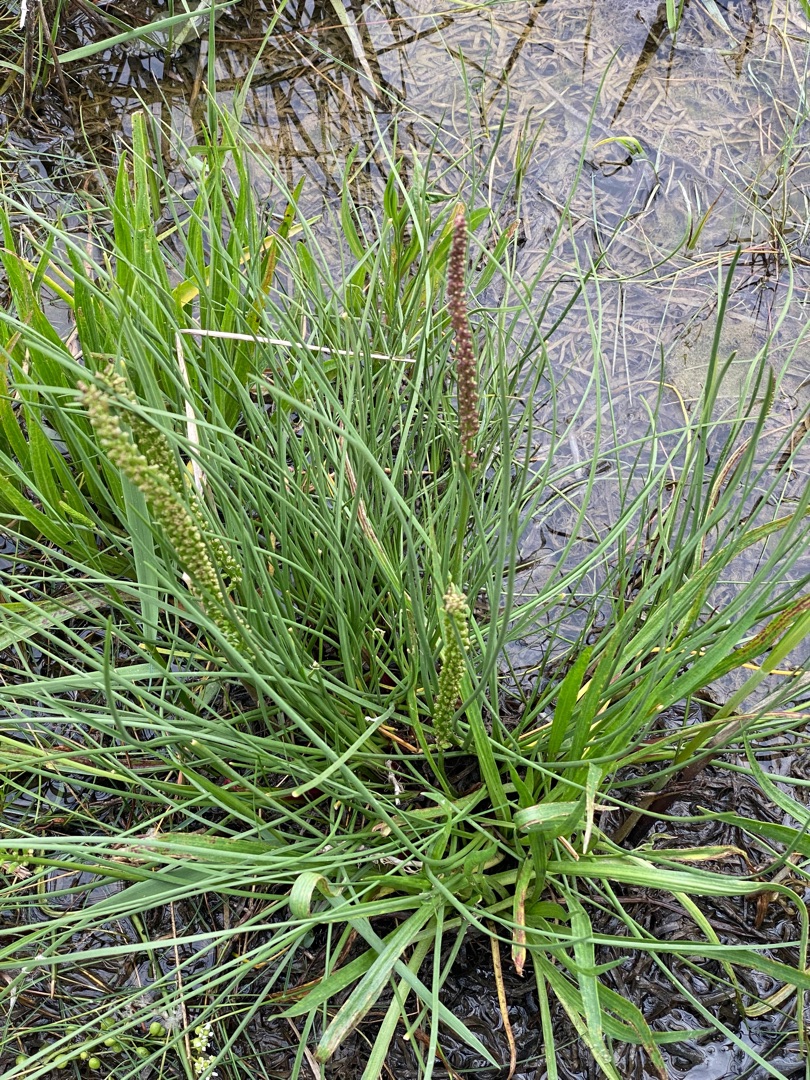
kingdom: Plantae
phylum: Tracheophyta
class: Liliopsida
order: Alismatales
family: Juncaginaceae
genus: Triglochin
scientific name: Triglochin maritima
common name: Strand-trehage
